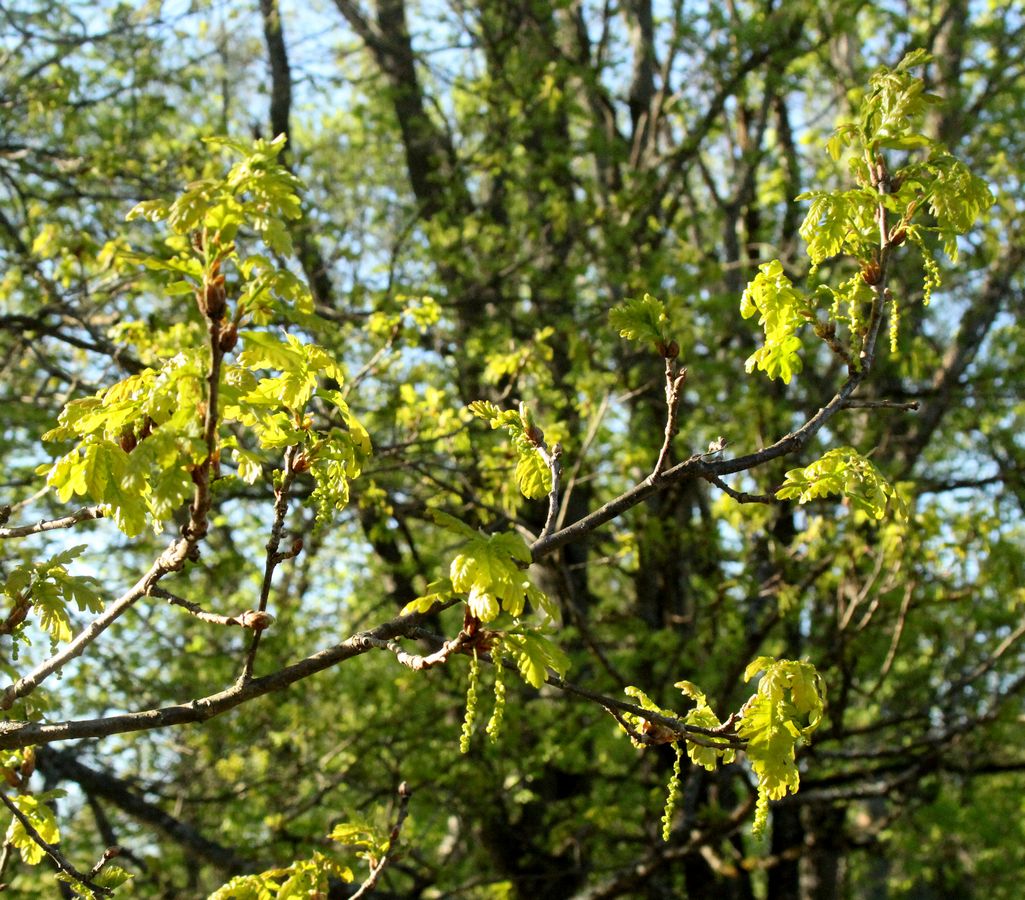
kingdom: Plantae
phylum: Tracheophyta
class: Magnoliopsida
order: Fagales
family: Fagaceae
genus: Quercus
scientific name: Quercus robur
